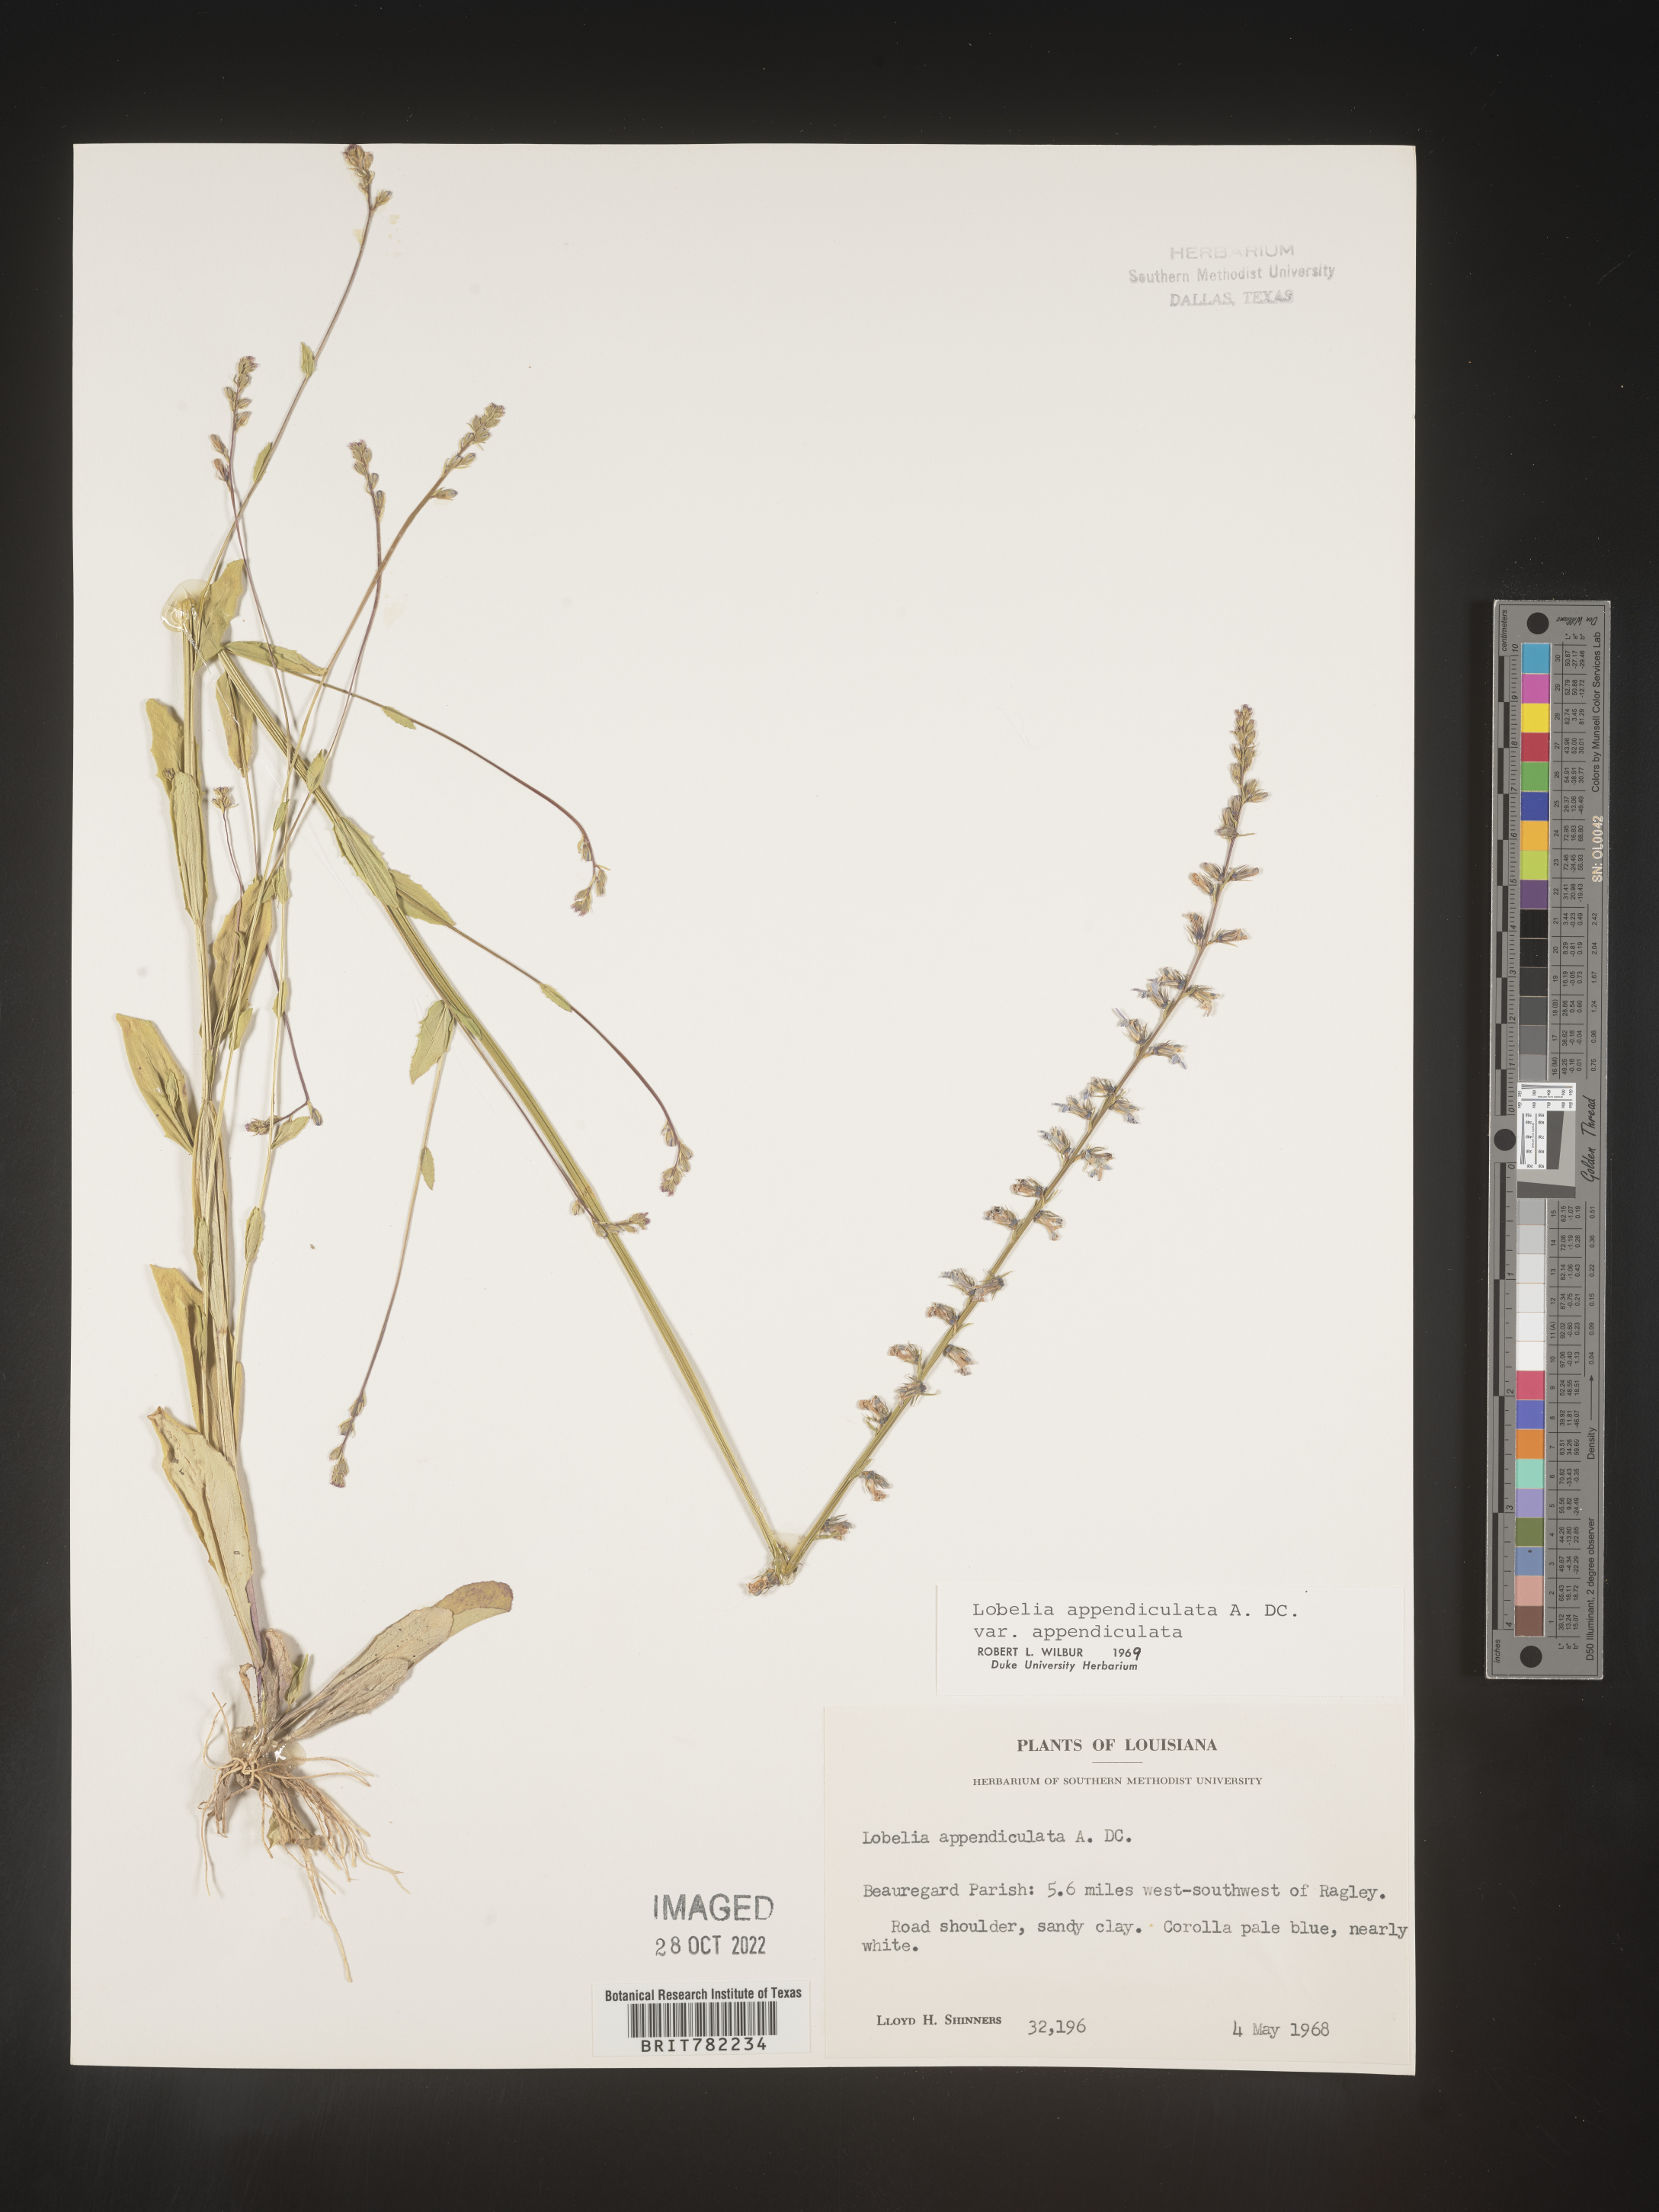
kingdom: Plantae
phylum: Tracheophyta
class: Magnoliopsida
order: Asterales
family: Campanulaceae
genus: Lobelia
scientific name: Lobelia appendiculata
